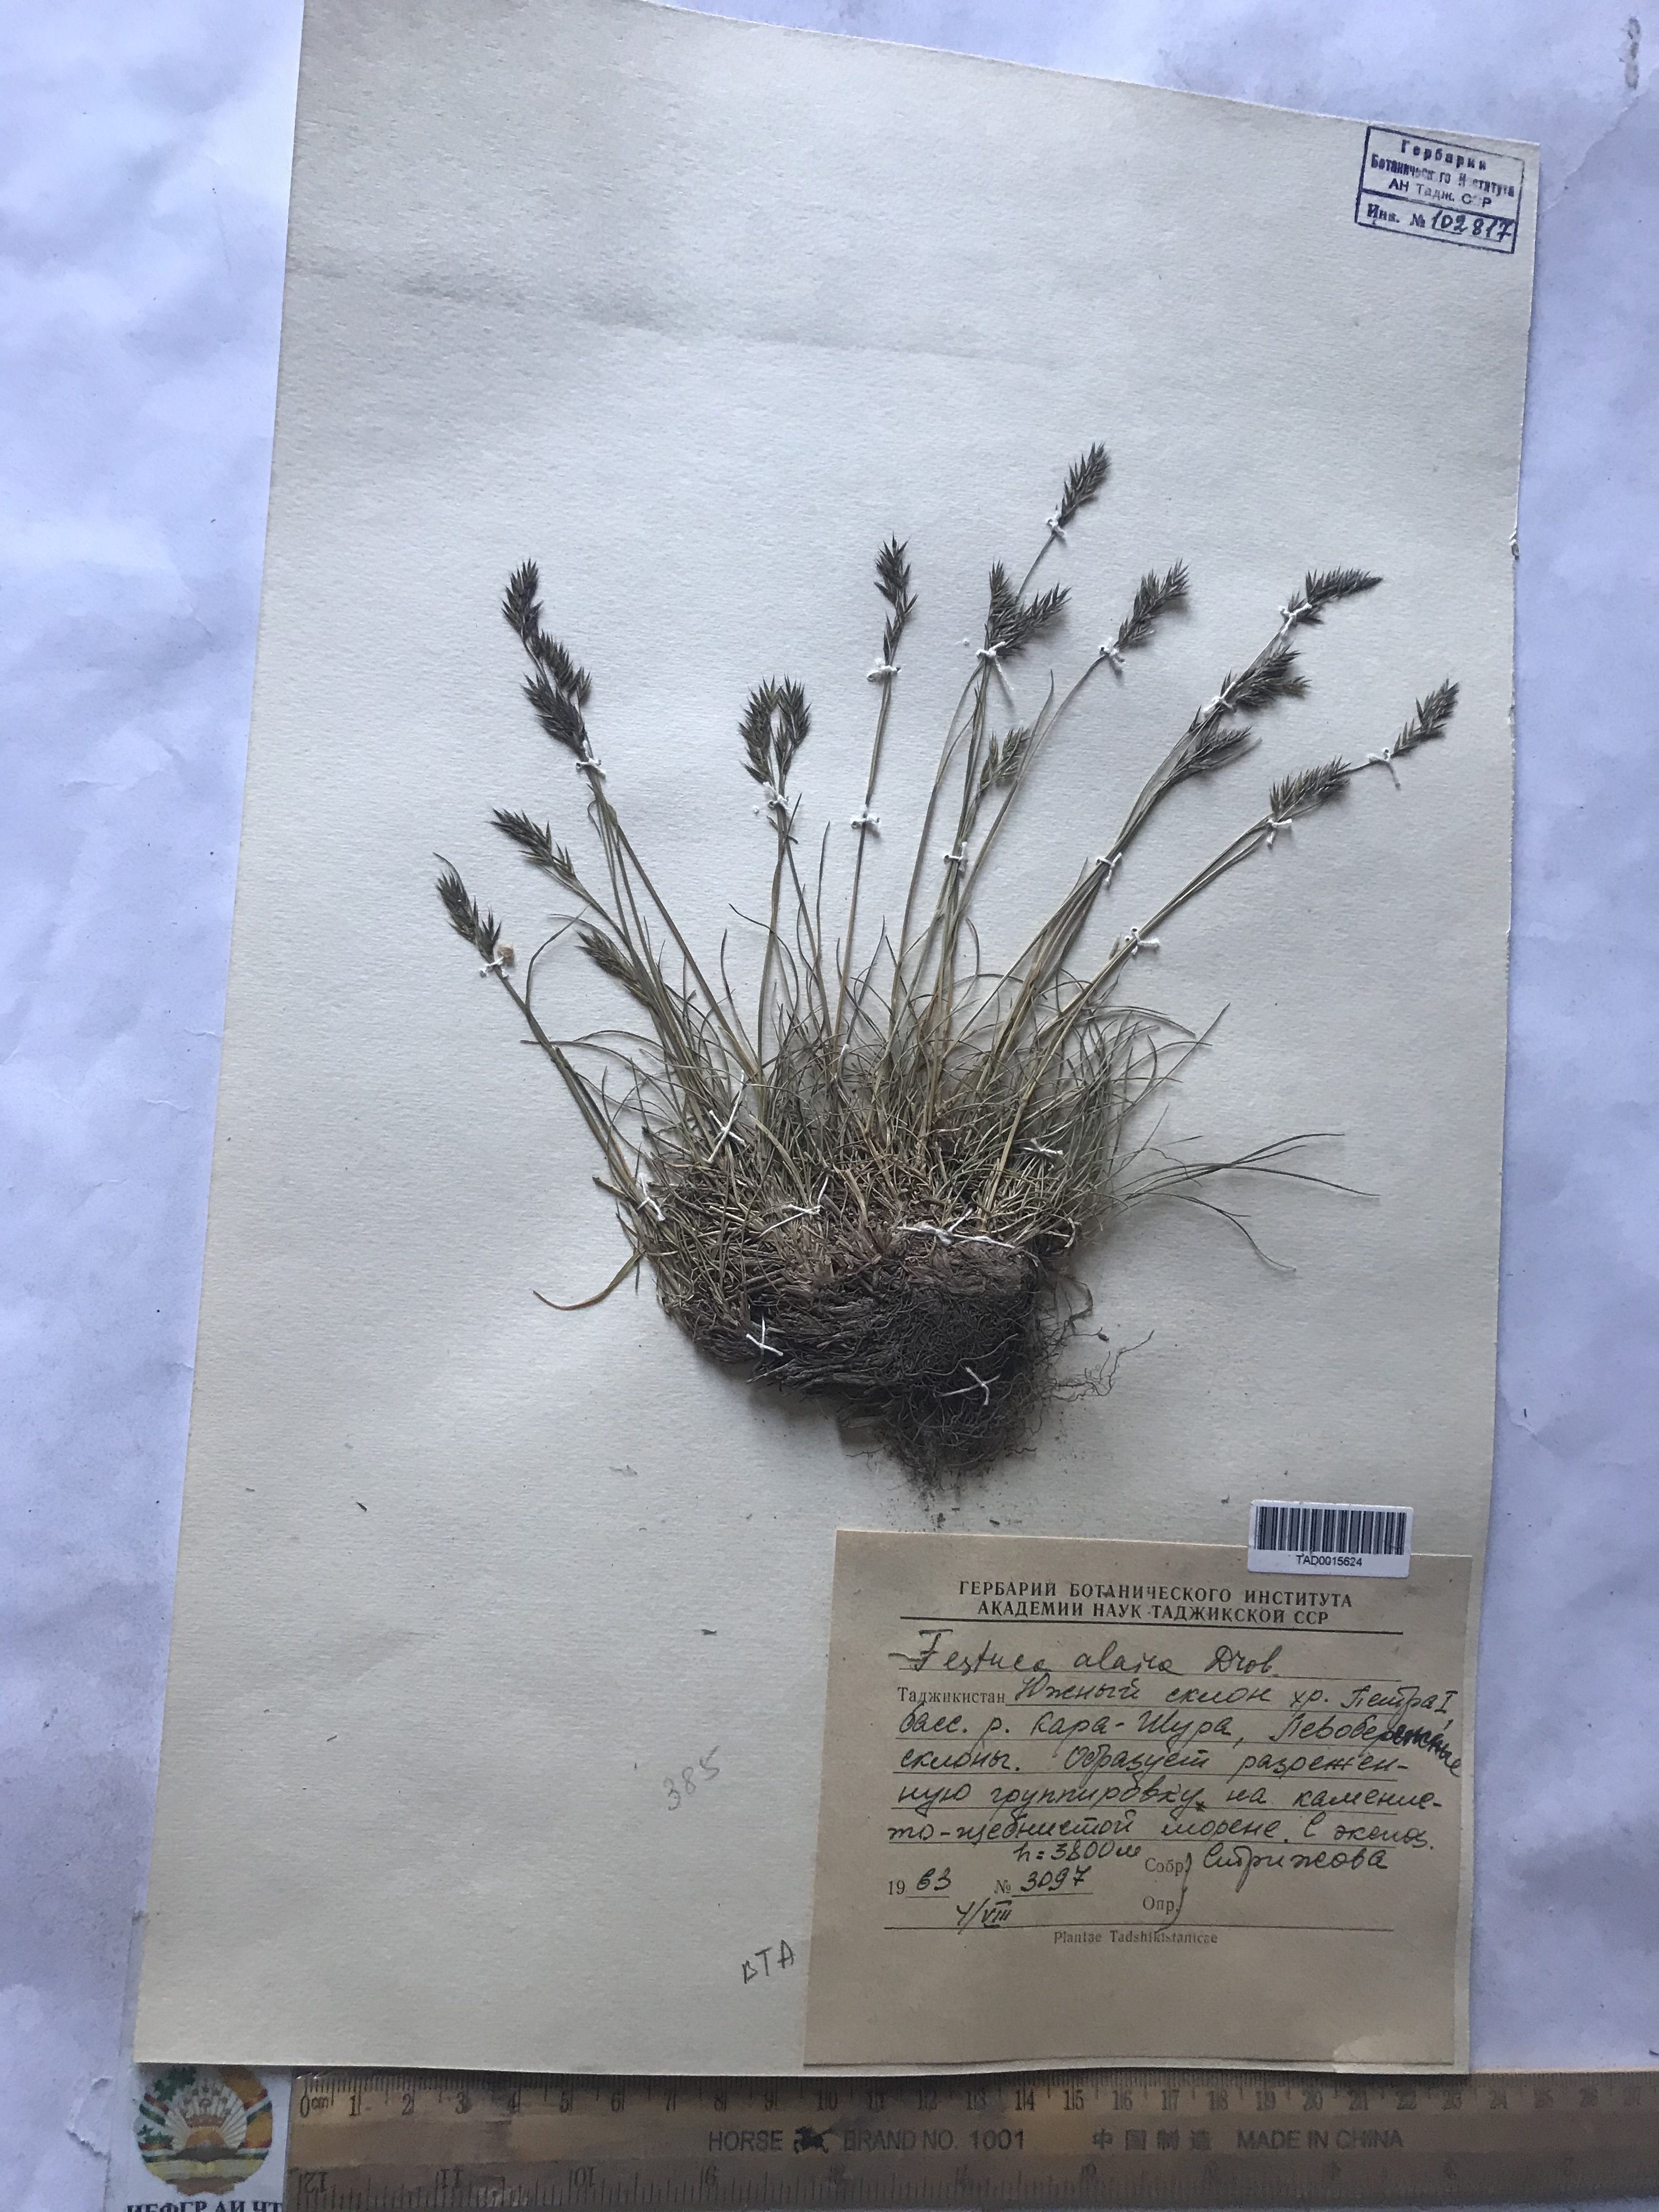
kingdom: Plantae
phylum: Tracheophyta
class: Liliopsida
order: Poales
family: Poaceae
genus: Festuca
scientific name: Festuca alaica
